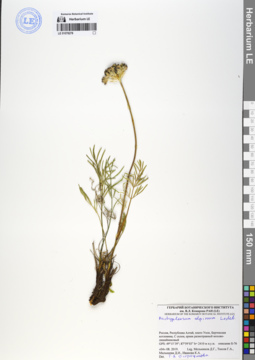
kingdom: Plantae
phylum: Tracheophyta
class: Magnoliopsida
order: Apiales
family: Apiaceae
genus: Pachypleurum
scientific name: Pachypleurum mutellinoides
